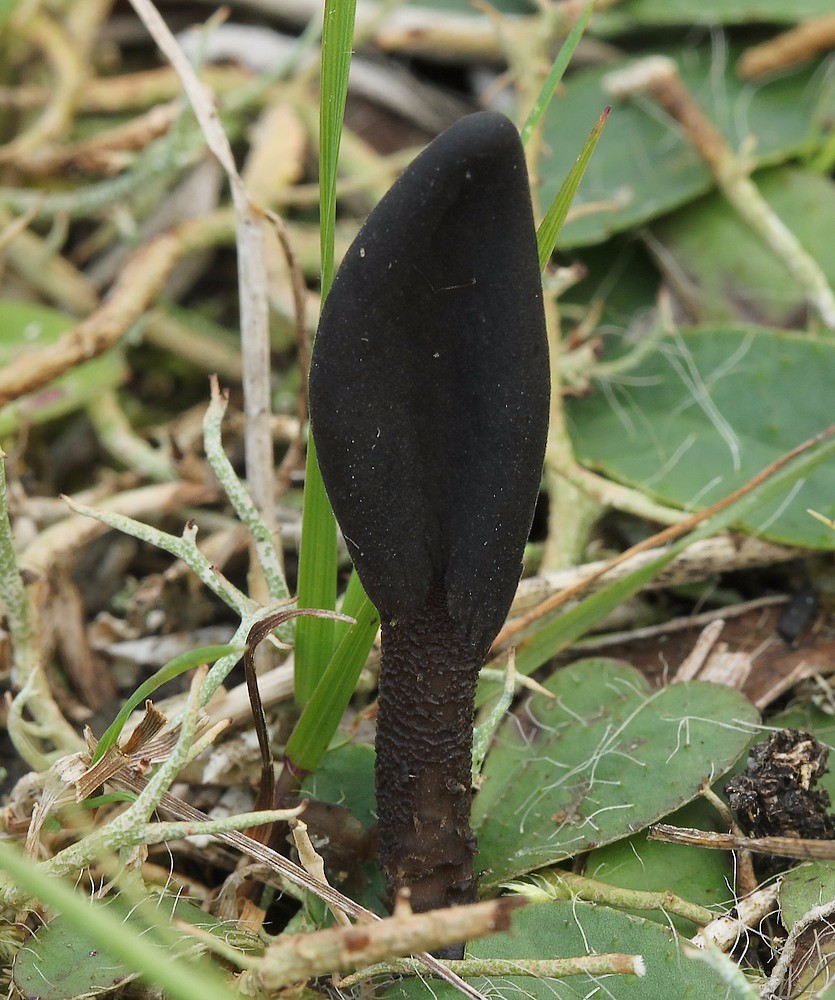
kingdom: Fungi
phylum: Ascomycota
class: Geoglossomycetes
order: Geoglossales
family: Geoglossaceae
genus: Hemileucoglossum
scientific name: Hemileucoglossum elongatum
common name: småsporet jordtunge
